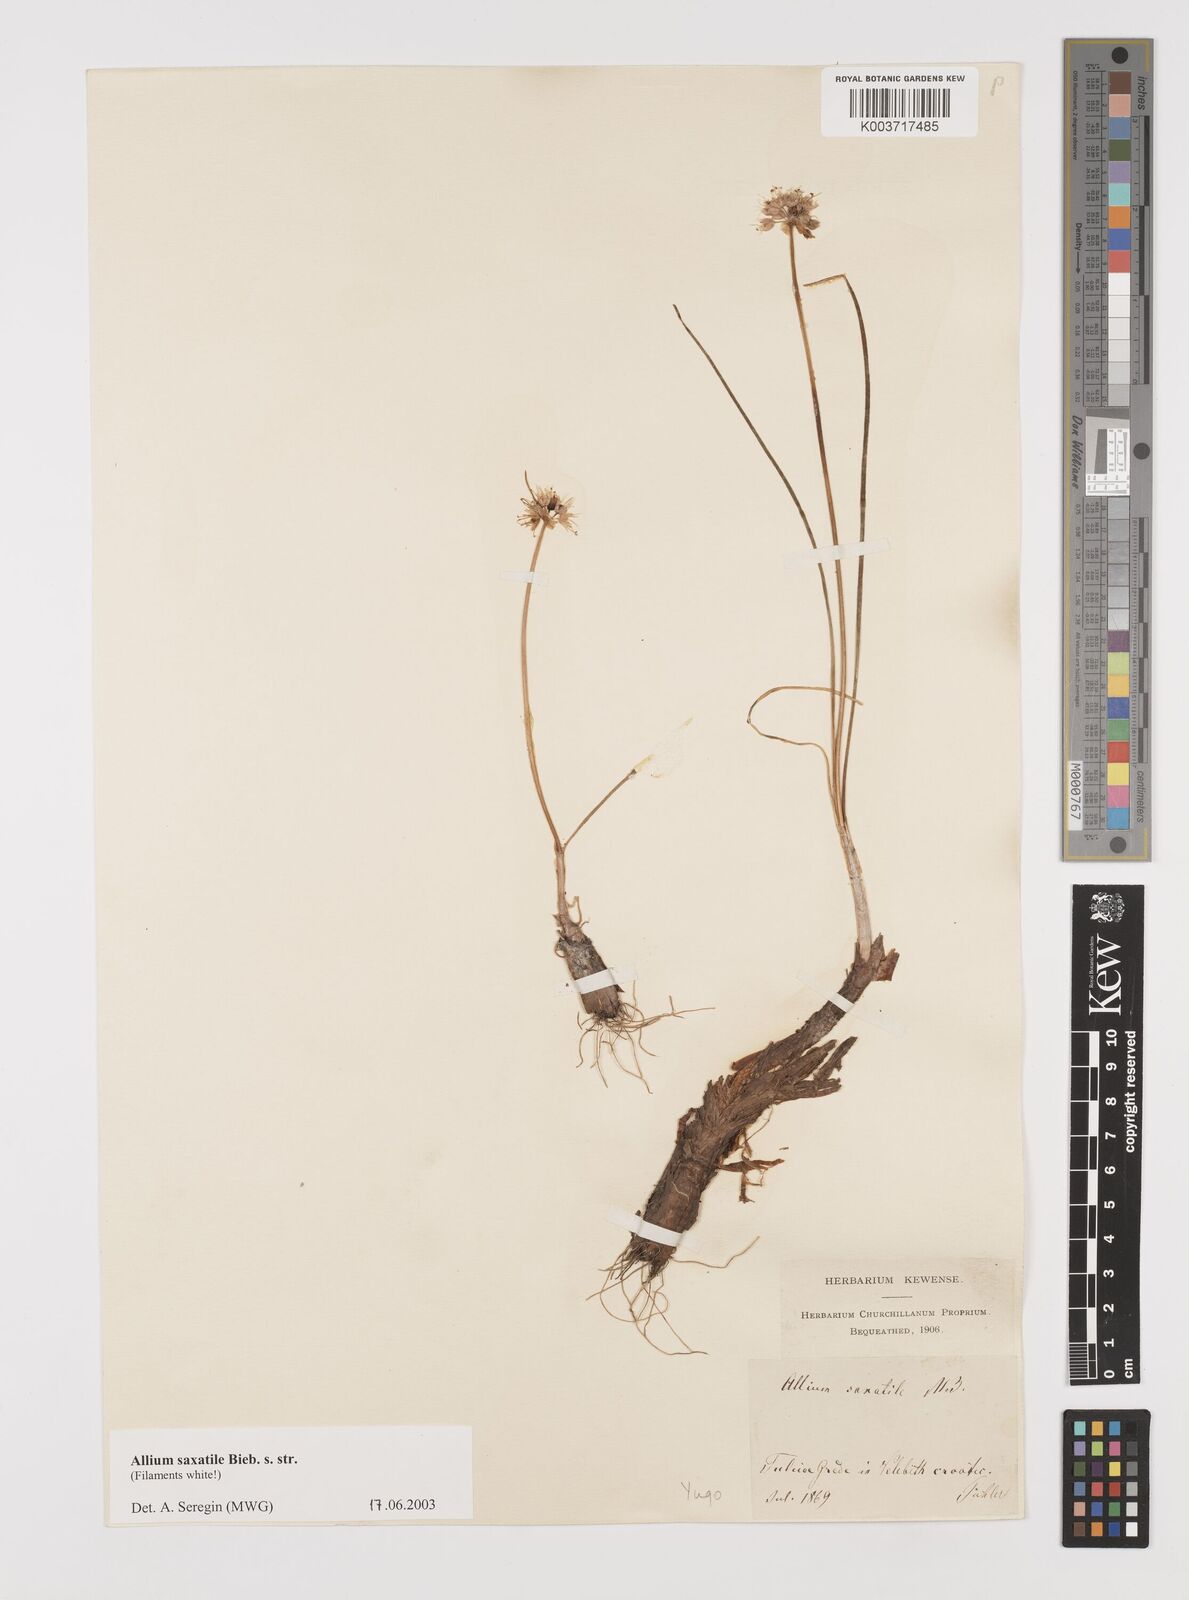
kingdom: Plantae
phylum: Tracheophyta
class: Liliopsida
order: Asparagales
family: Amaryllidaceae
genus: Allium
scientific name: Allium saxatile
